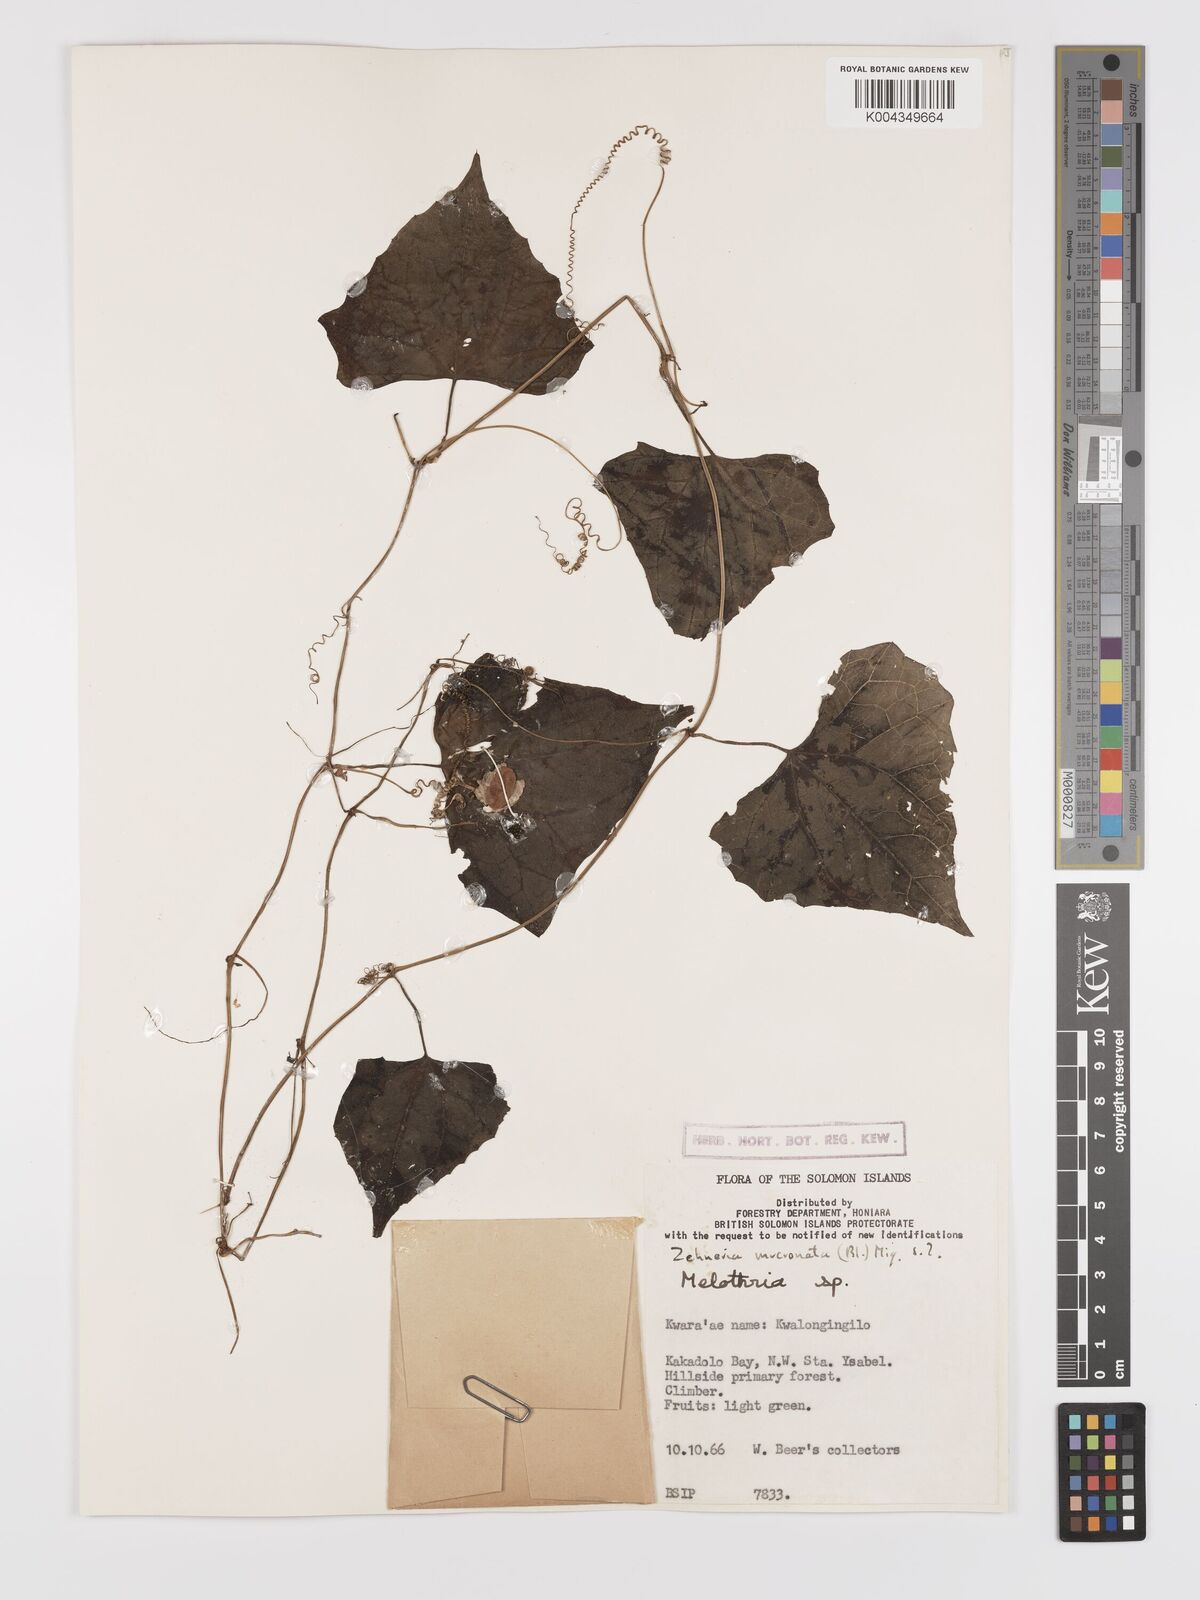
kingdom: Plantae
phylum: Tracheophyta
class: Magnoliopsida
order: Cucurbitales
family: Cucurbitaceae
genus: Zehneria
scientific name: Zehneria mucronata
